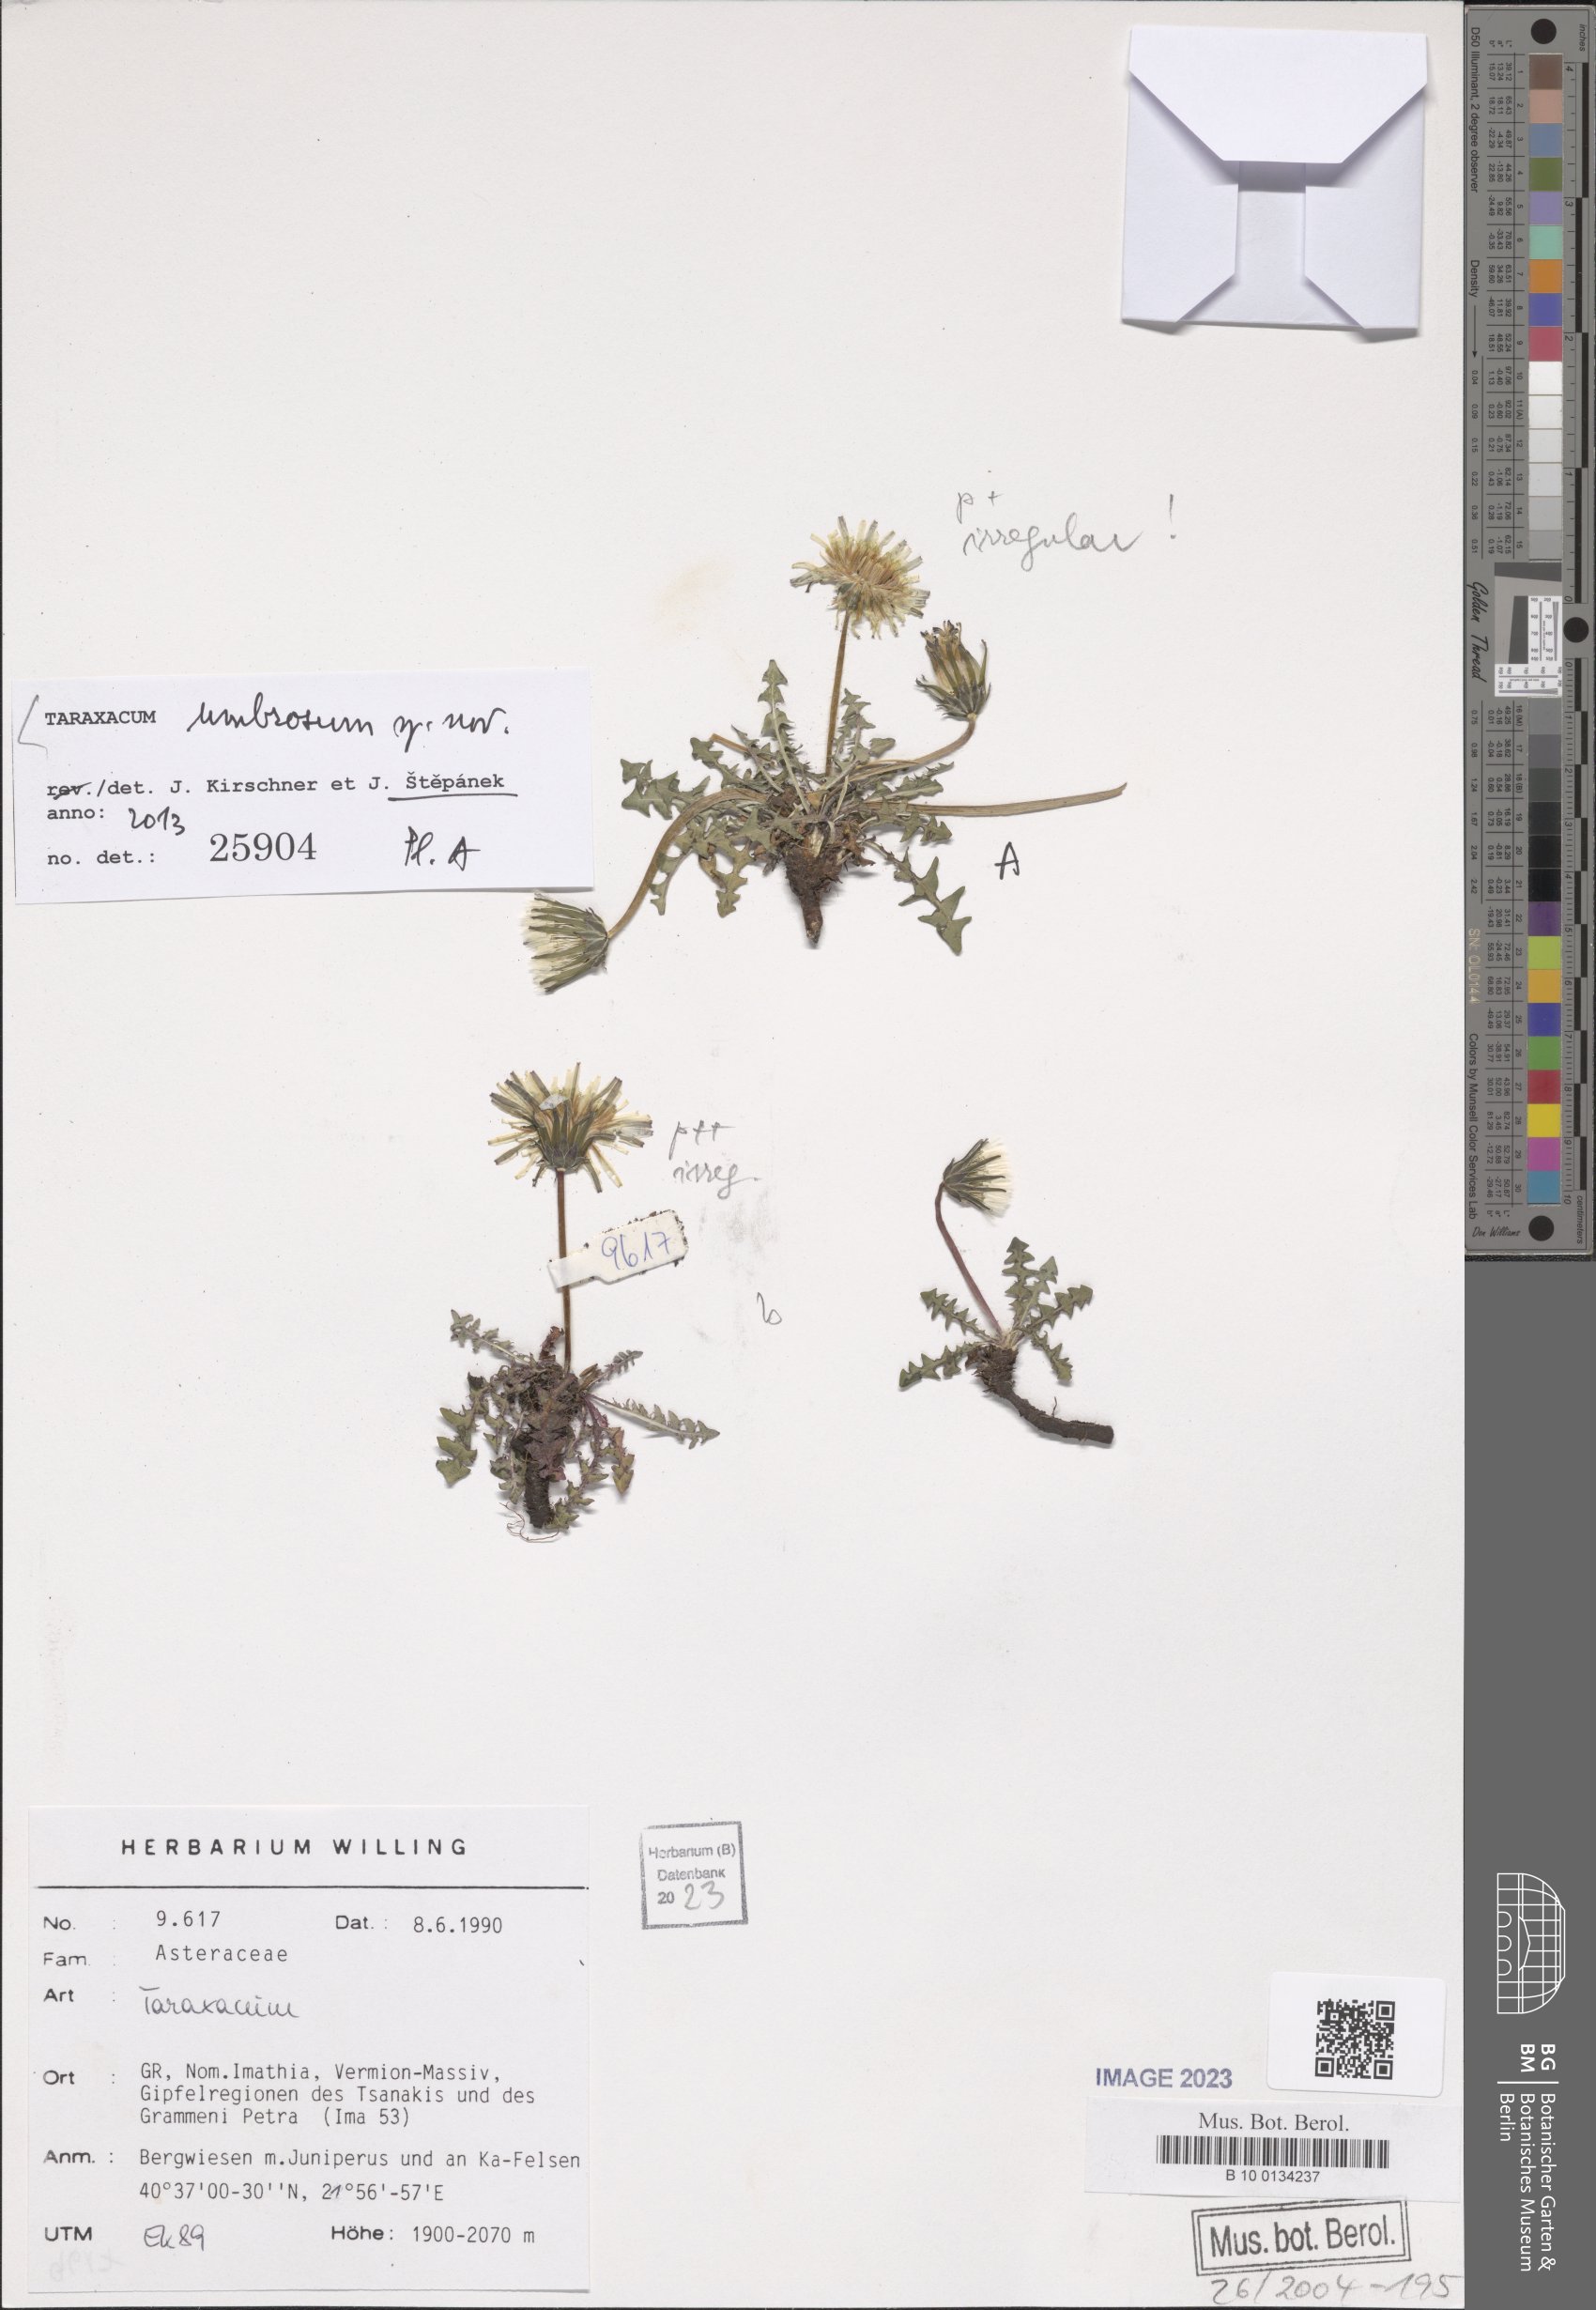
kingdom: Plantae
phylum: Tracheophyta
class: Magnoliopsida
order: Asterales
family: Asteraceae
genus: Taraxacum
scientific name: Taraxacum umbrosum
